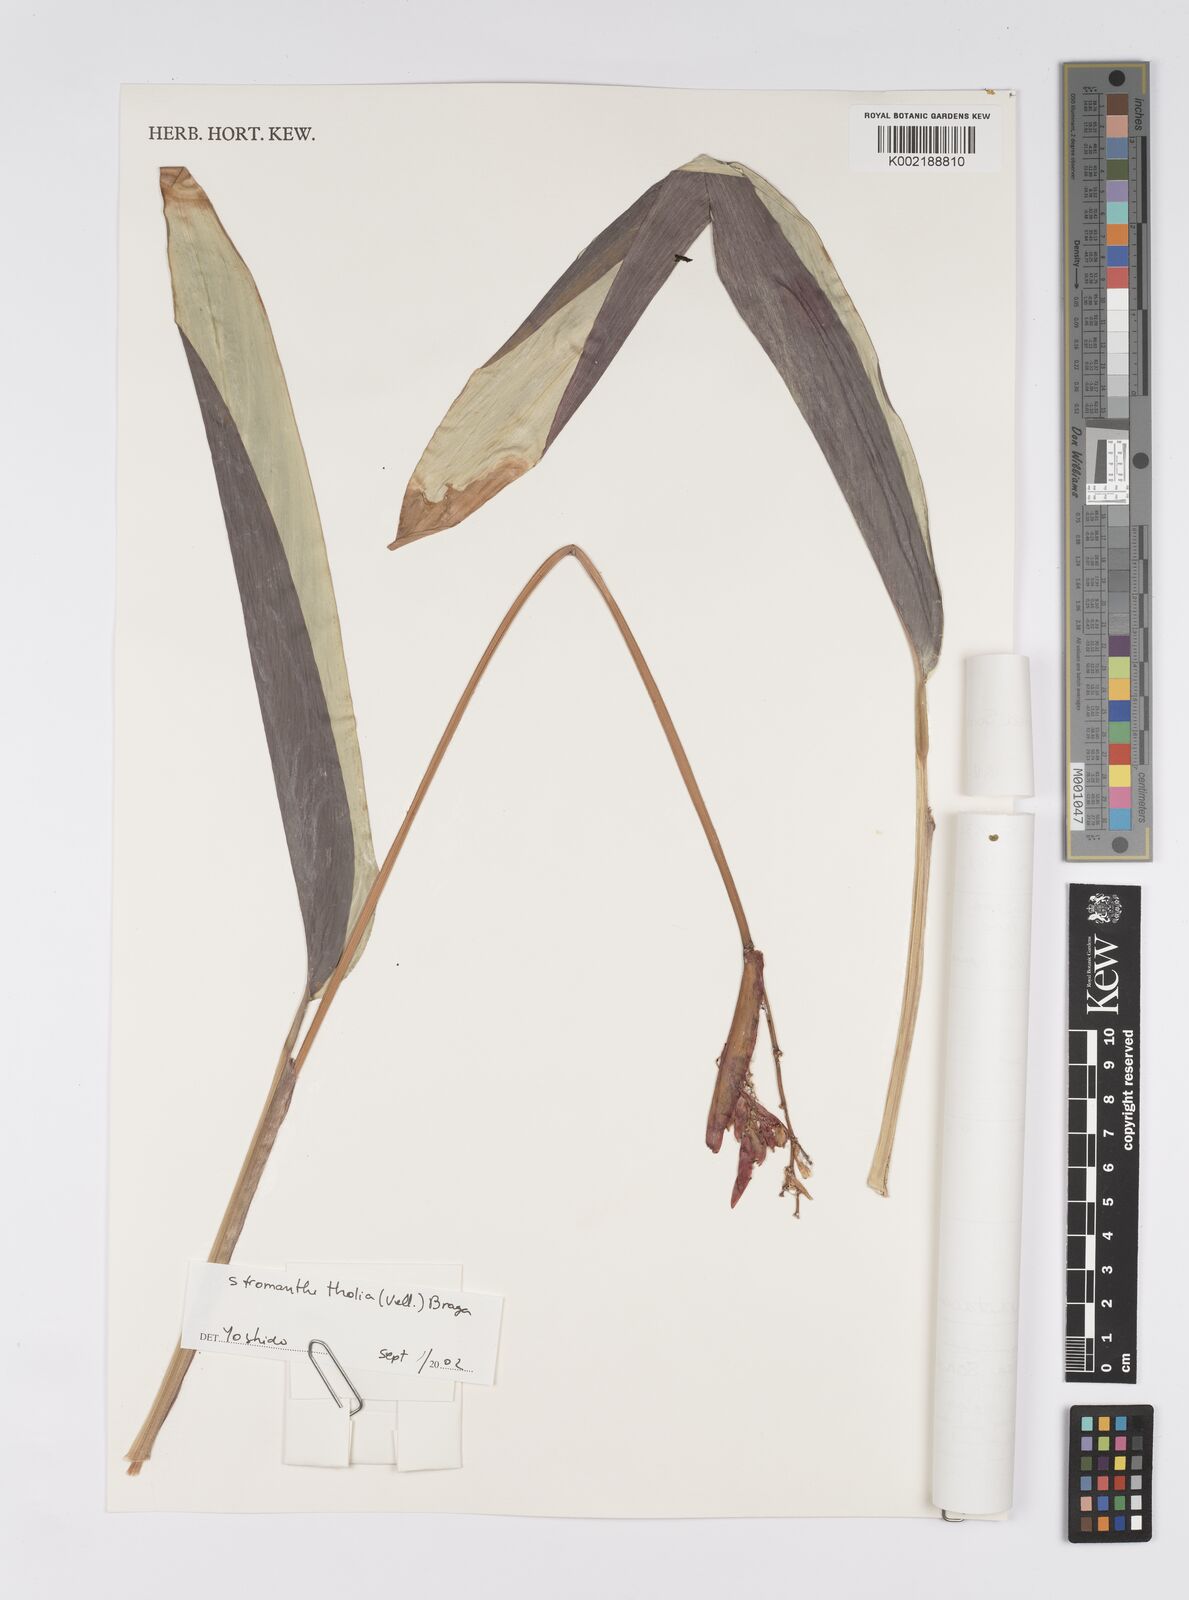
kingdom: Plantae
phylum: Tracheophyta
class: Liliopsida
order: Zingiberales
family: Marantaceae
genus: Stromanthe
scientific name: Stromanthe thalia
